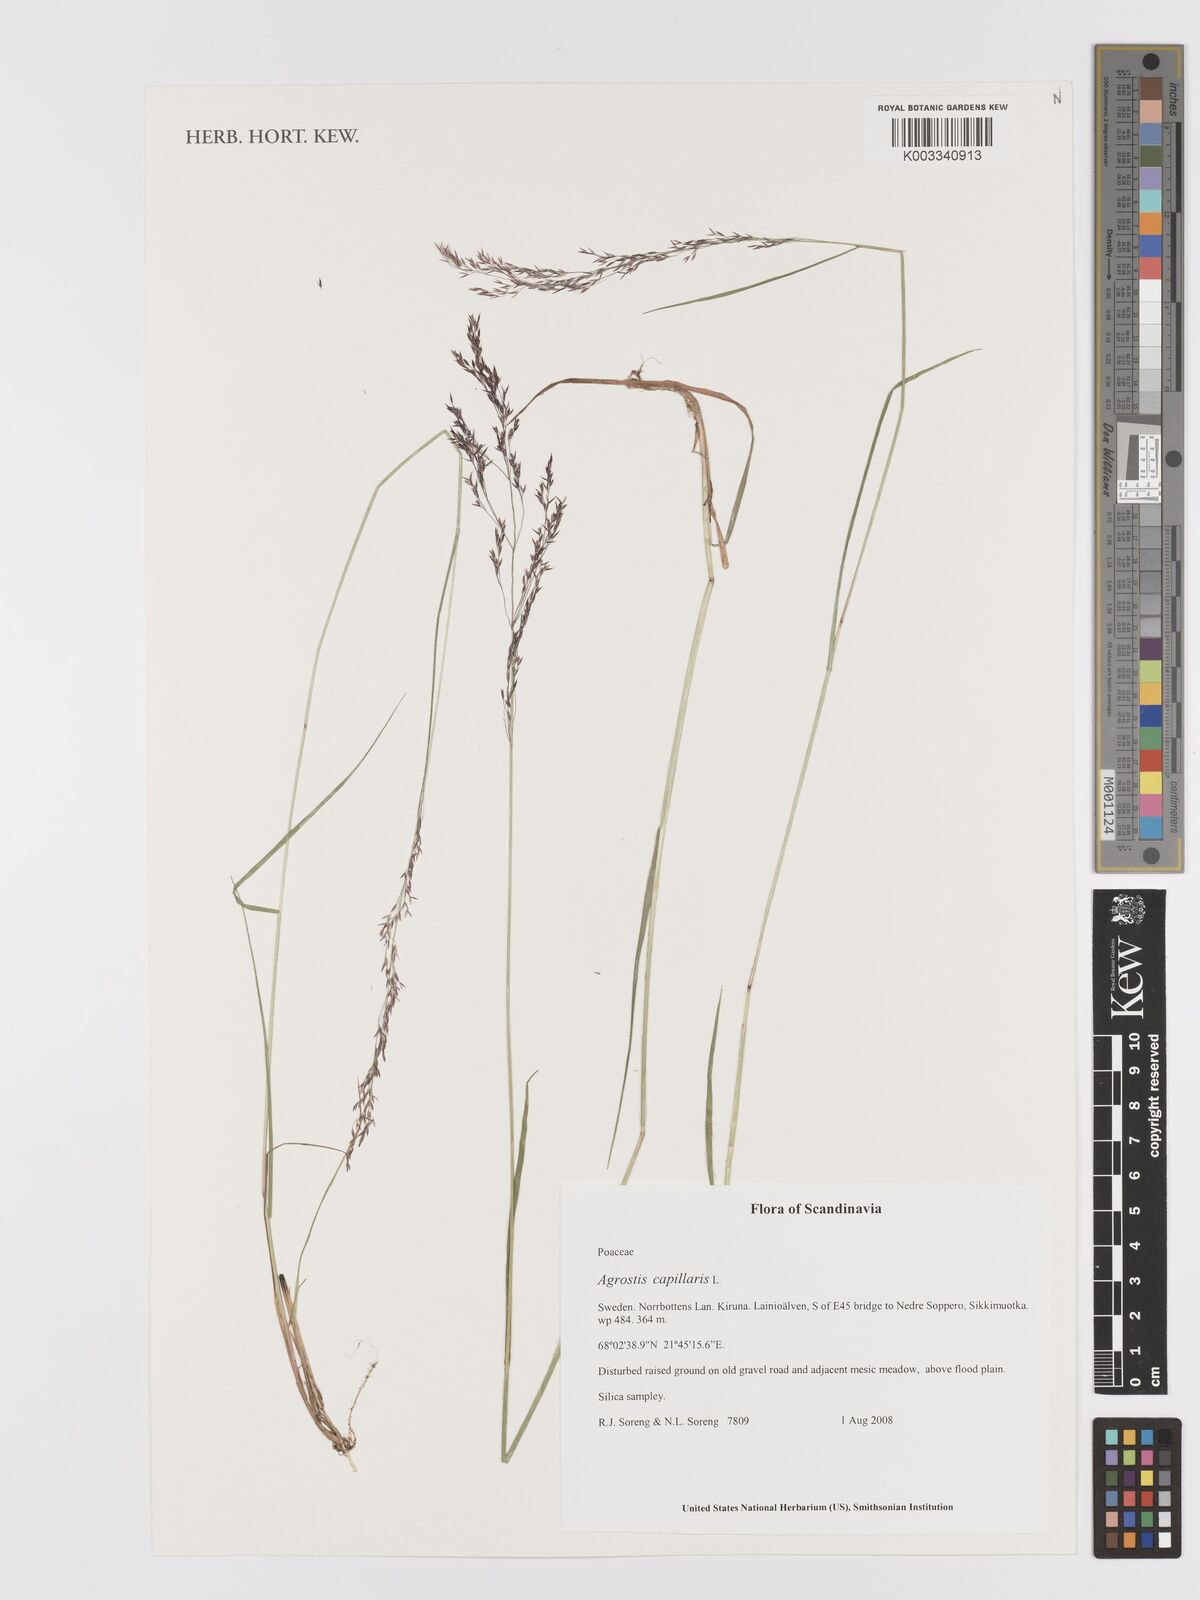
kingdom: Plantae
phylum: Tracheophyta
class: Liliopsida
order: Poales
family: Poaceae
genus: Agrostis
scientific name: Agrostis capillaris
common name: Colonial bentgrass
